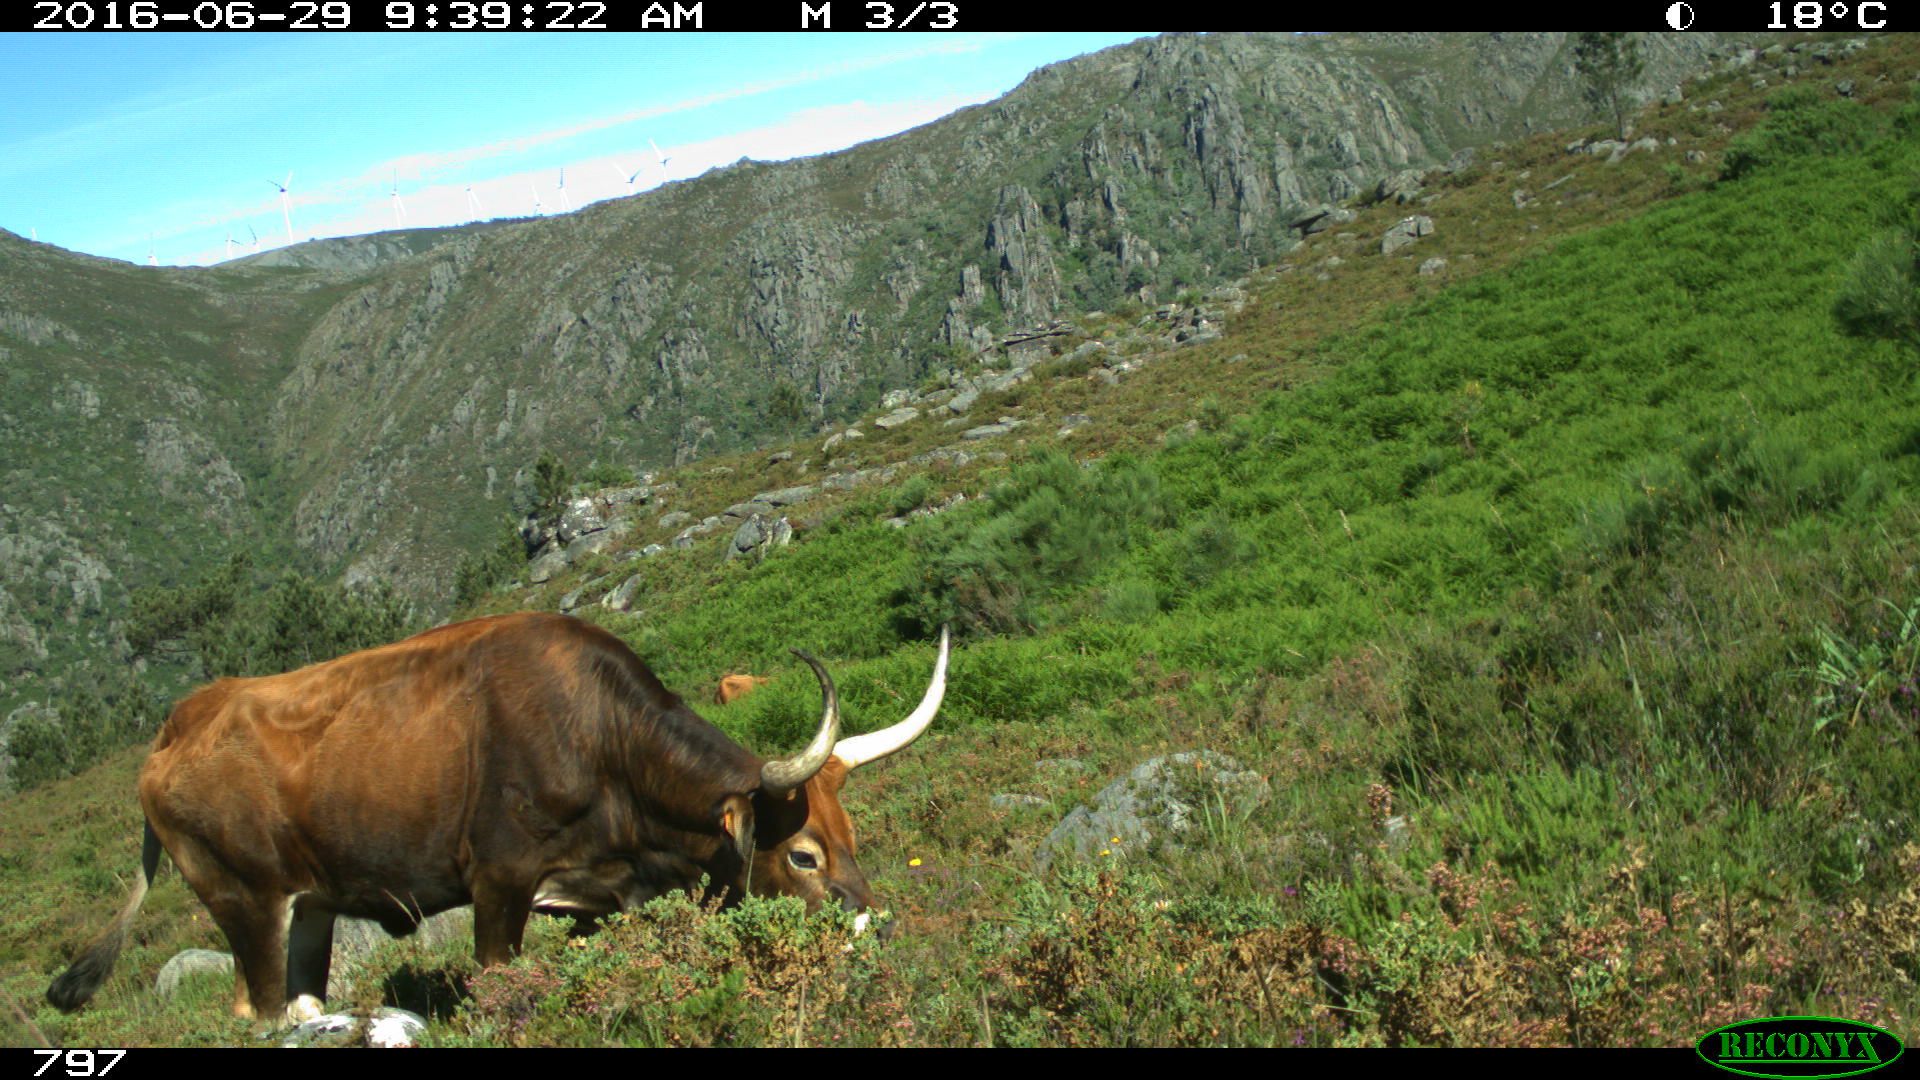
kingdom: Animalia
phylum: Chordata
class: Mammalia
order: Artiodactyla
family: Bovidae
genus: Bos
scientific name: Bos taurus
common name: Domesticated cattle
